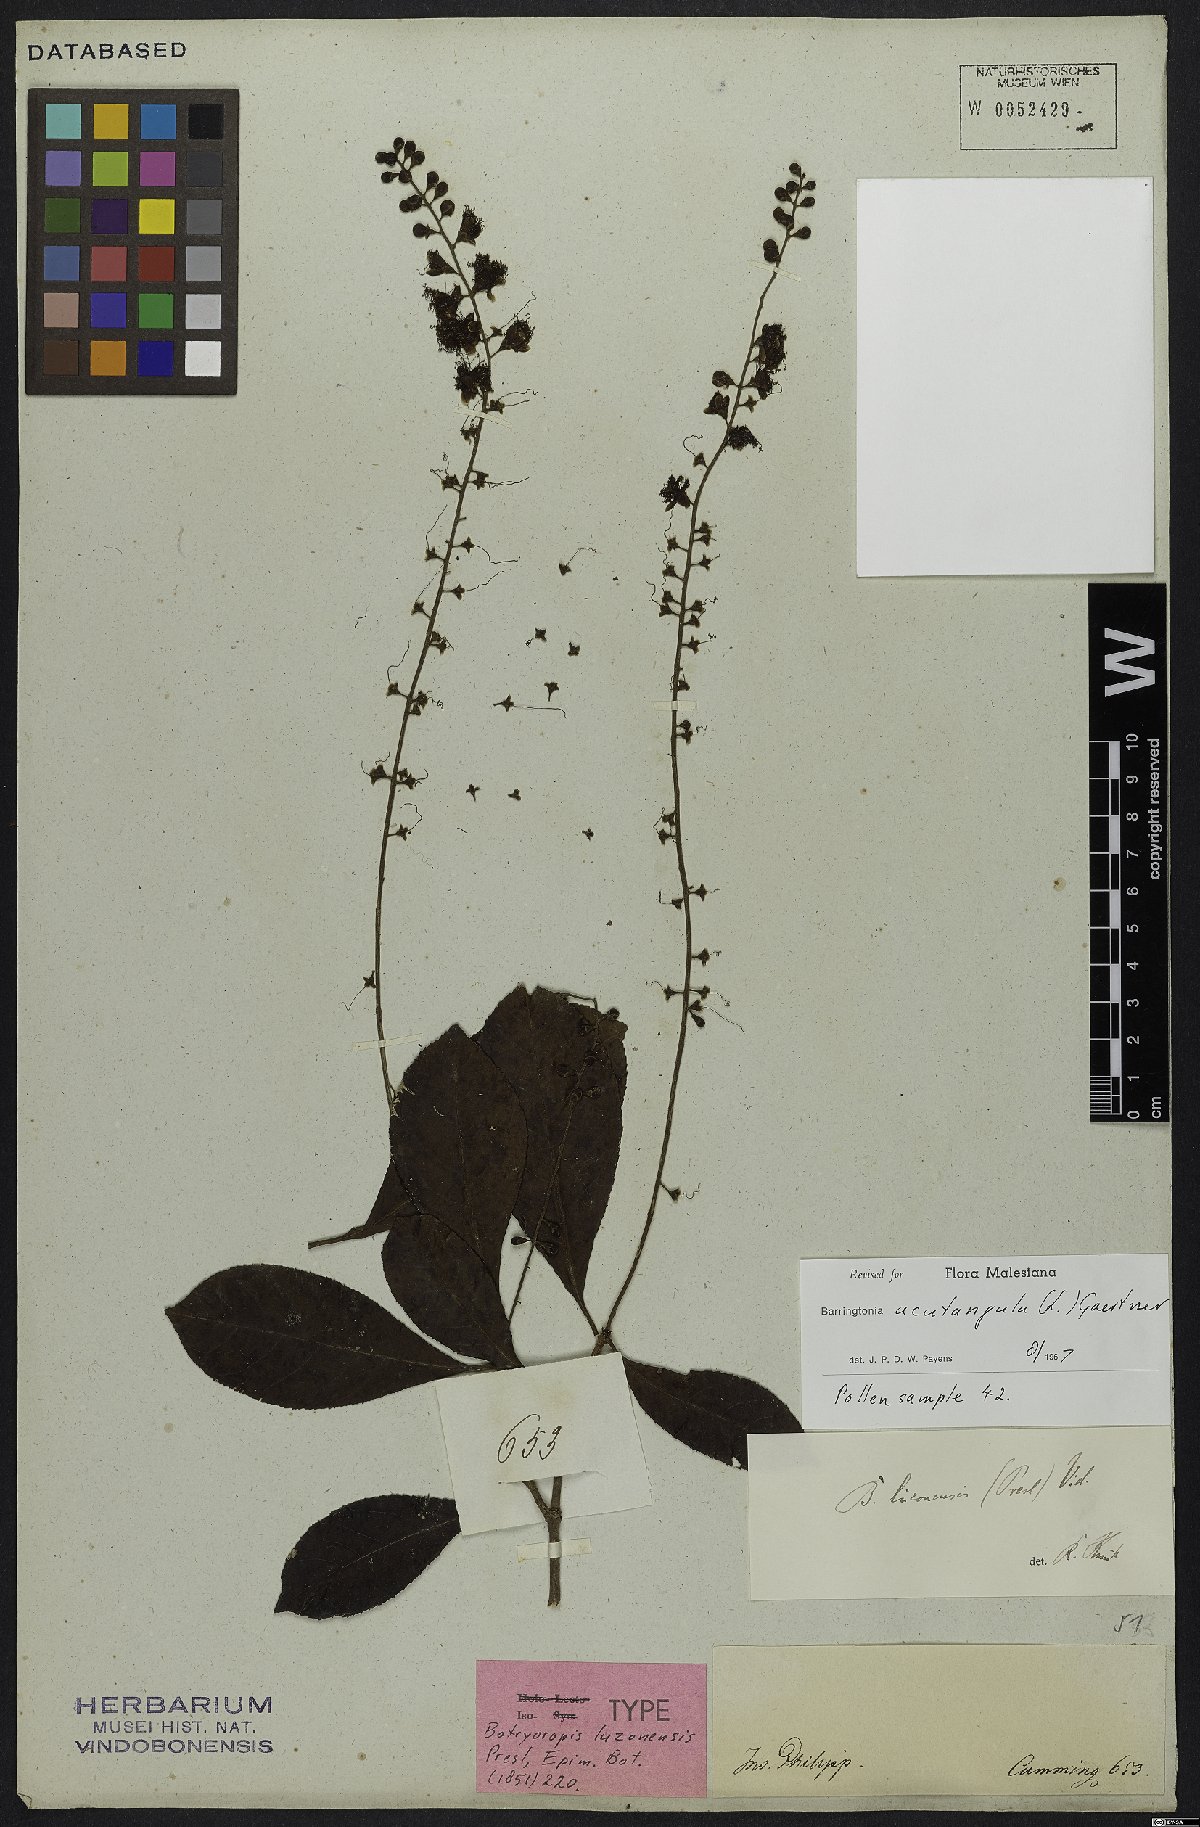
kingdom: Plantae
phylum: Tracheophyta
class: Magnoliopsida
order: Ericales
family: Lecythidaceae
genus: Barringtonia
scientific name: Barringtonia acutangula
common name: Freshwater mangrove
